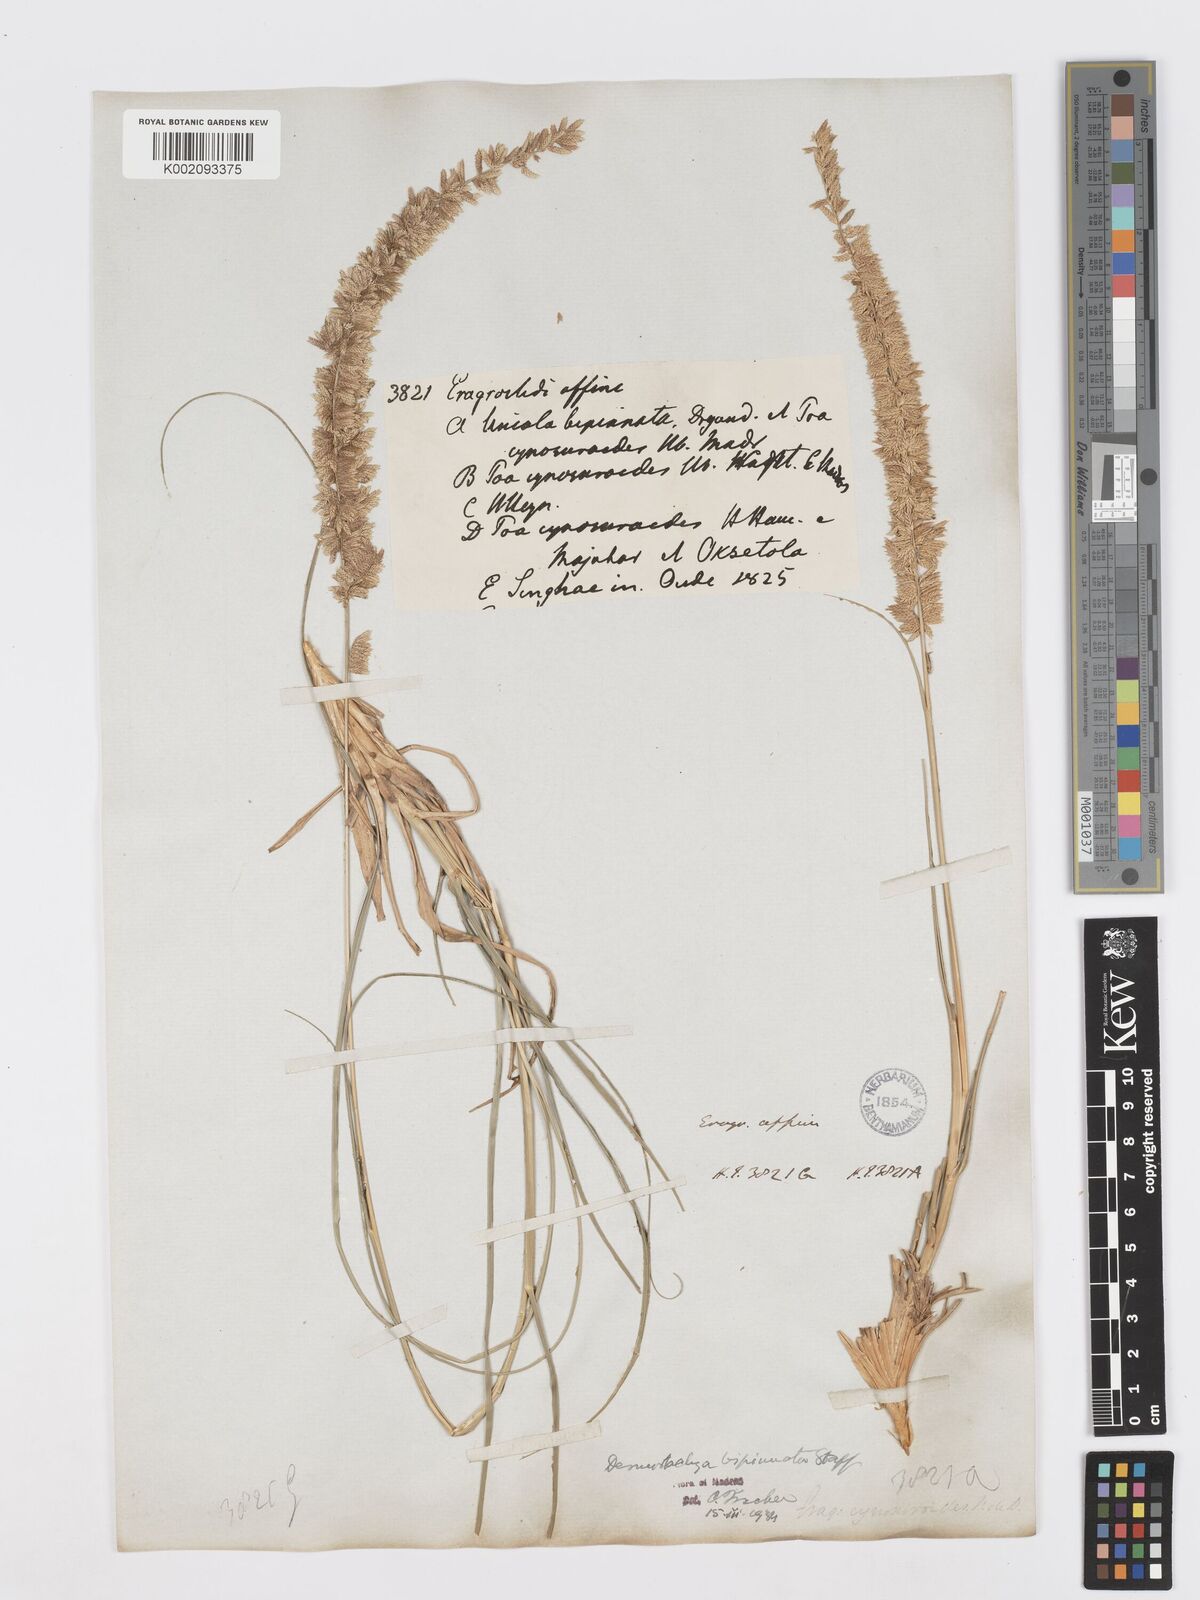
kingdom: Plantae
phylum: Tracheophyta
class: Liliopsida
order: Poales
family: Poaceae
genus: Desmostachya
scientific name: Desmostachya bipinnata
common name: Crowfoot grass
